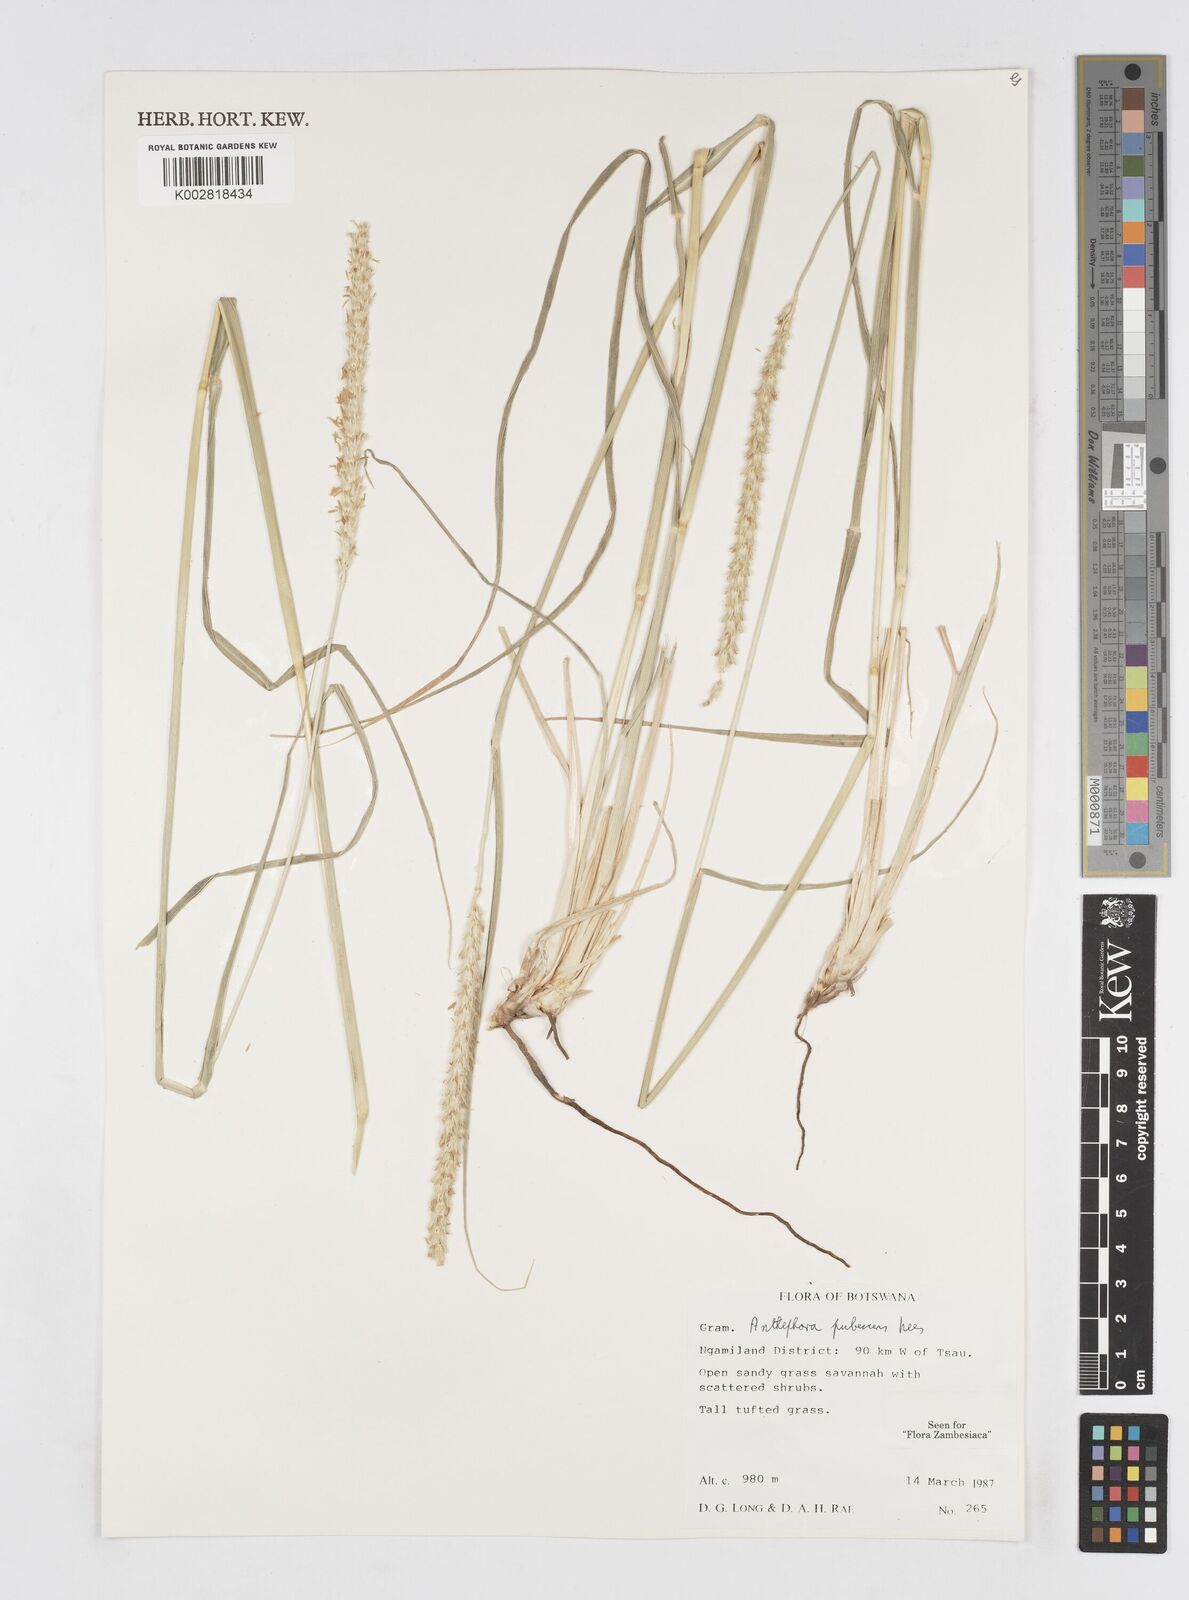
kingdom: Plantae
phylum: Tracheophyta
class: Liliopsida
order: Poales
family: Poaceae
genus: Anthephora
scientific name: Anthephora pubescens
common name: Wool grass
